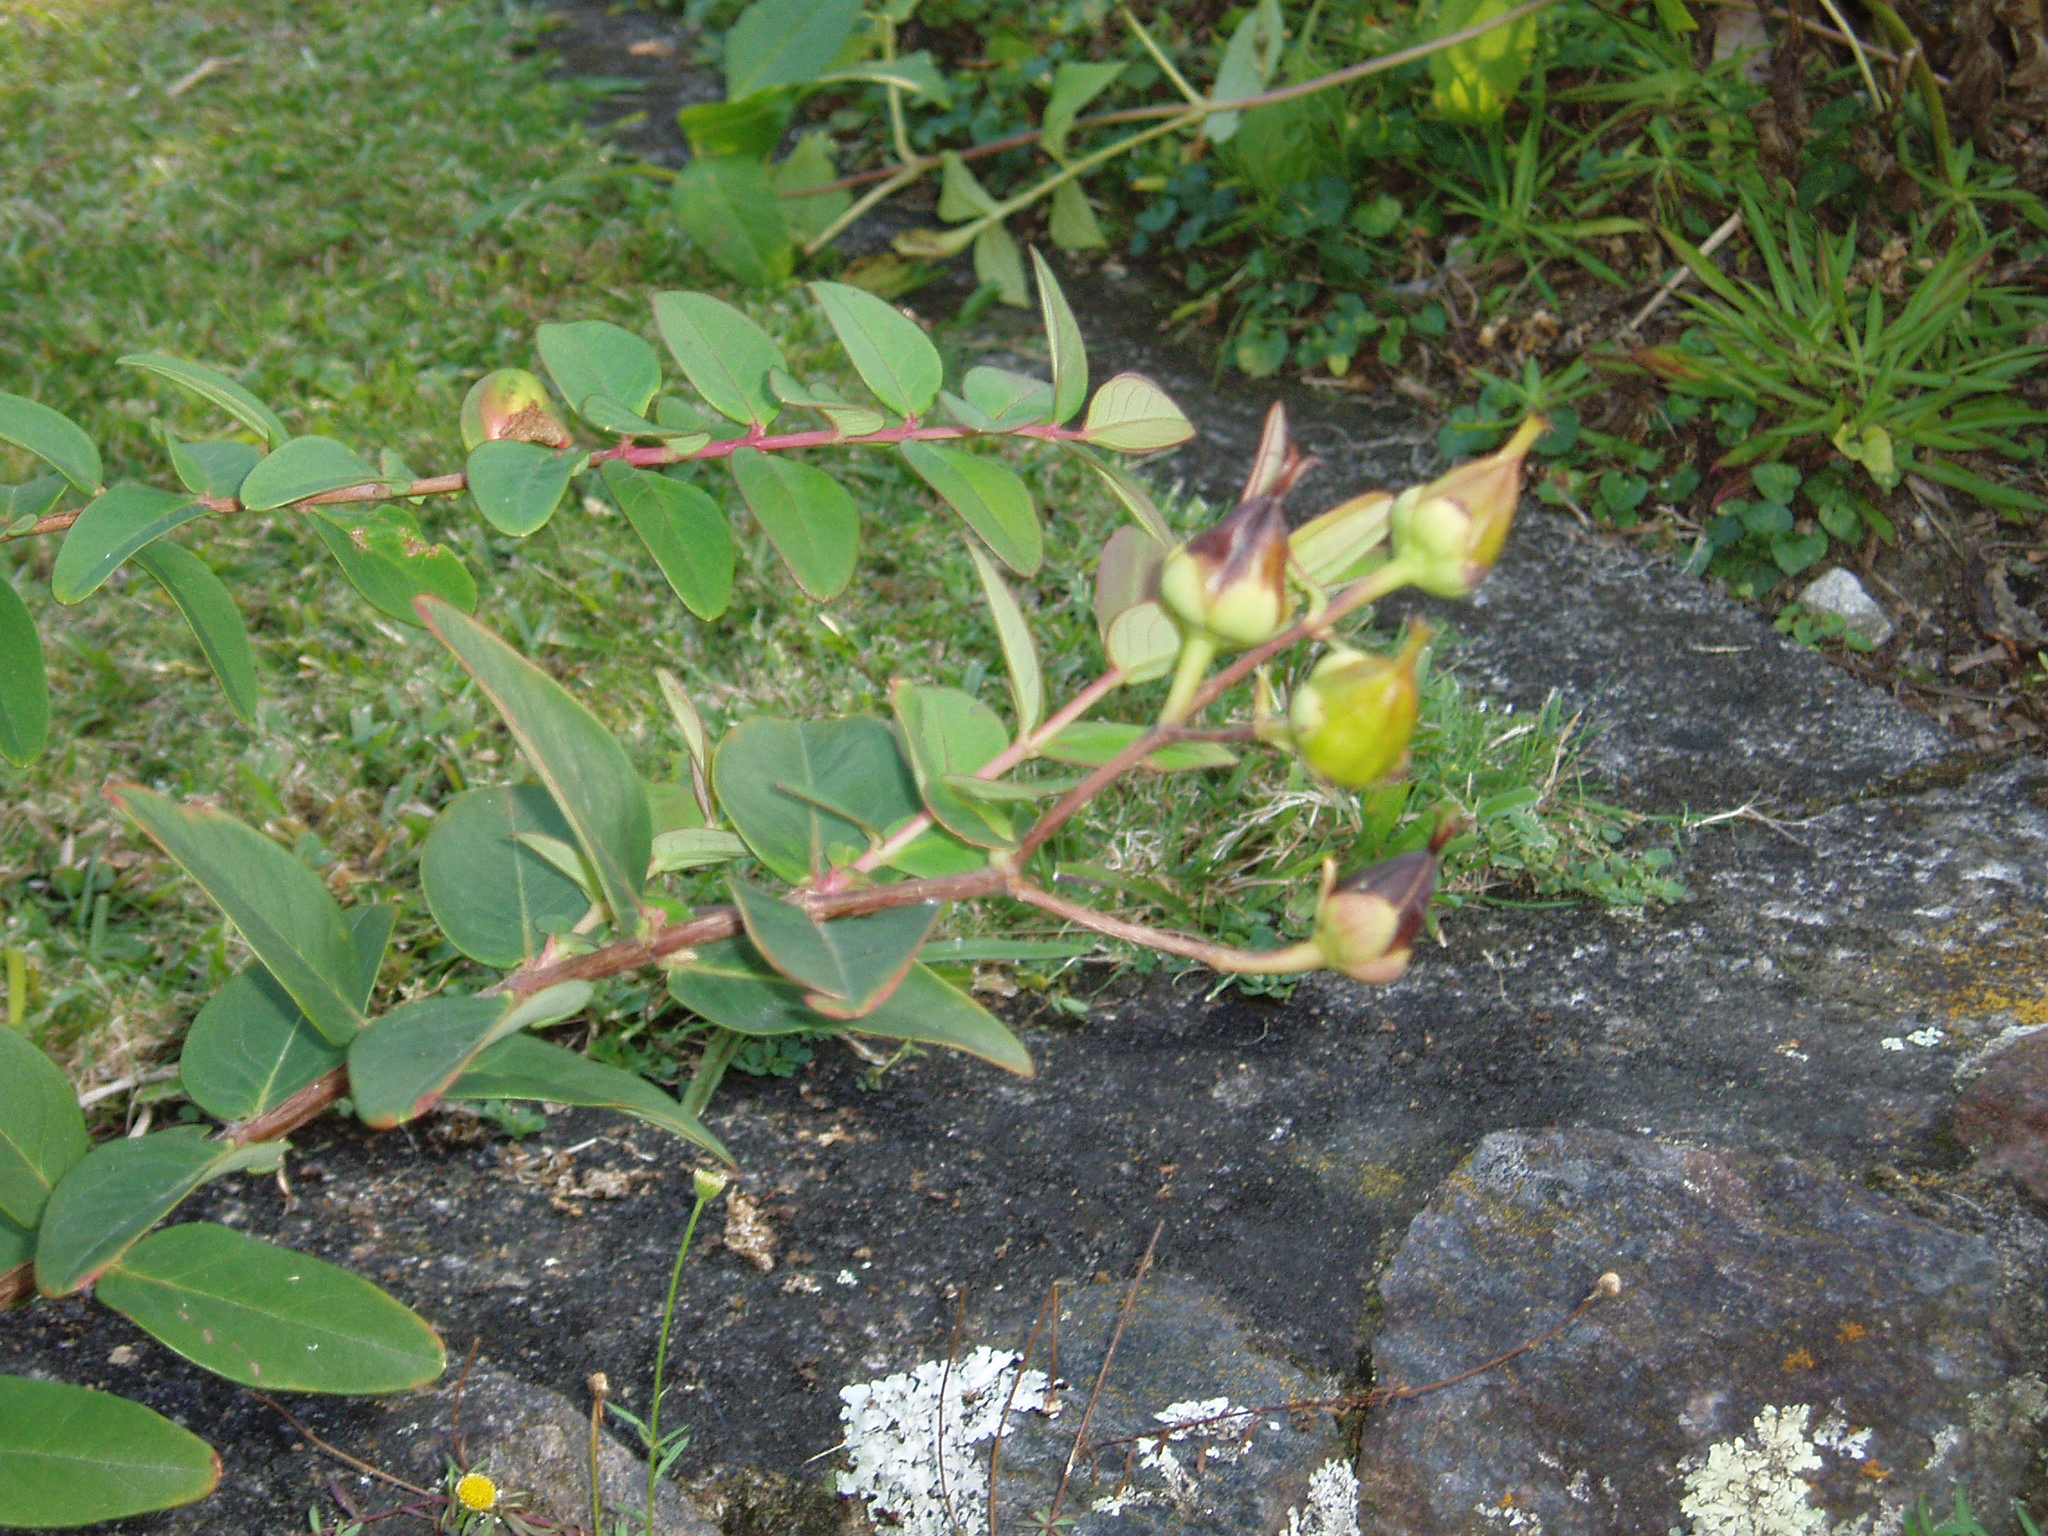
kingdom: Plantae
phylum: Tracheophyta
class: Magnoliopsida
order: Malpighiales
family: Hypericaceae
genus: Hypericum
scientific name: Hypericum henryi
